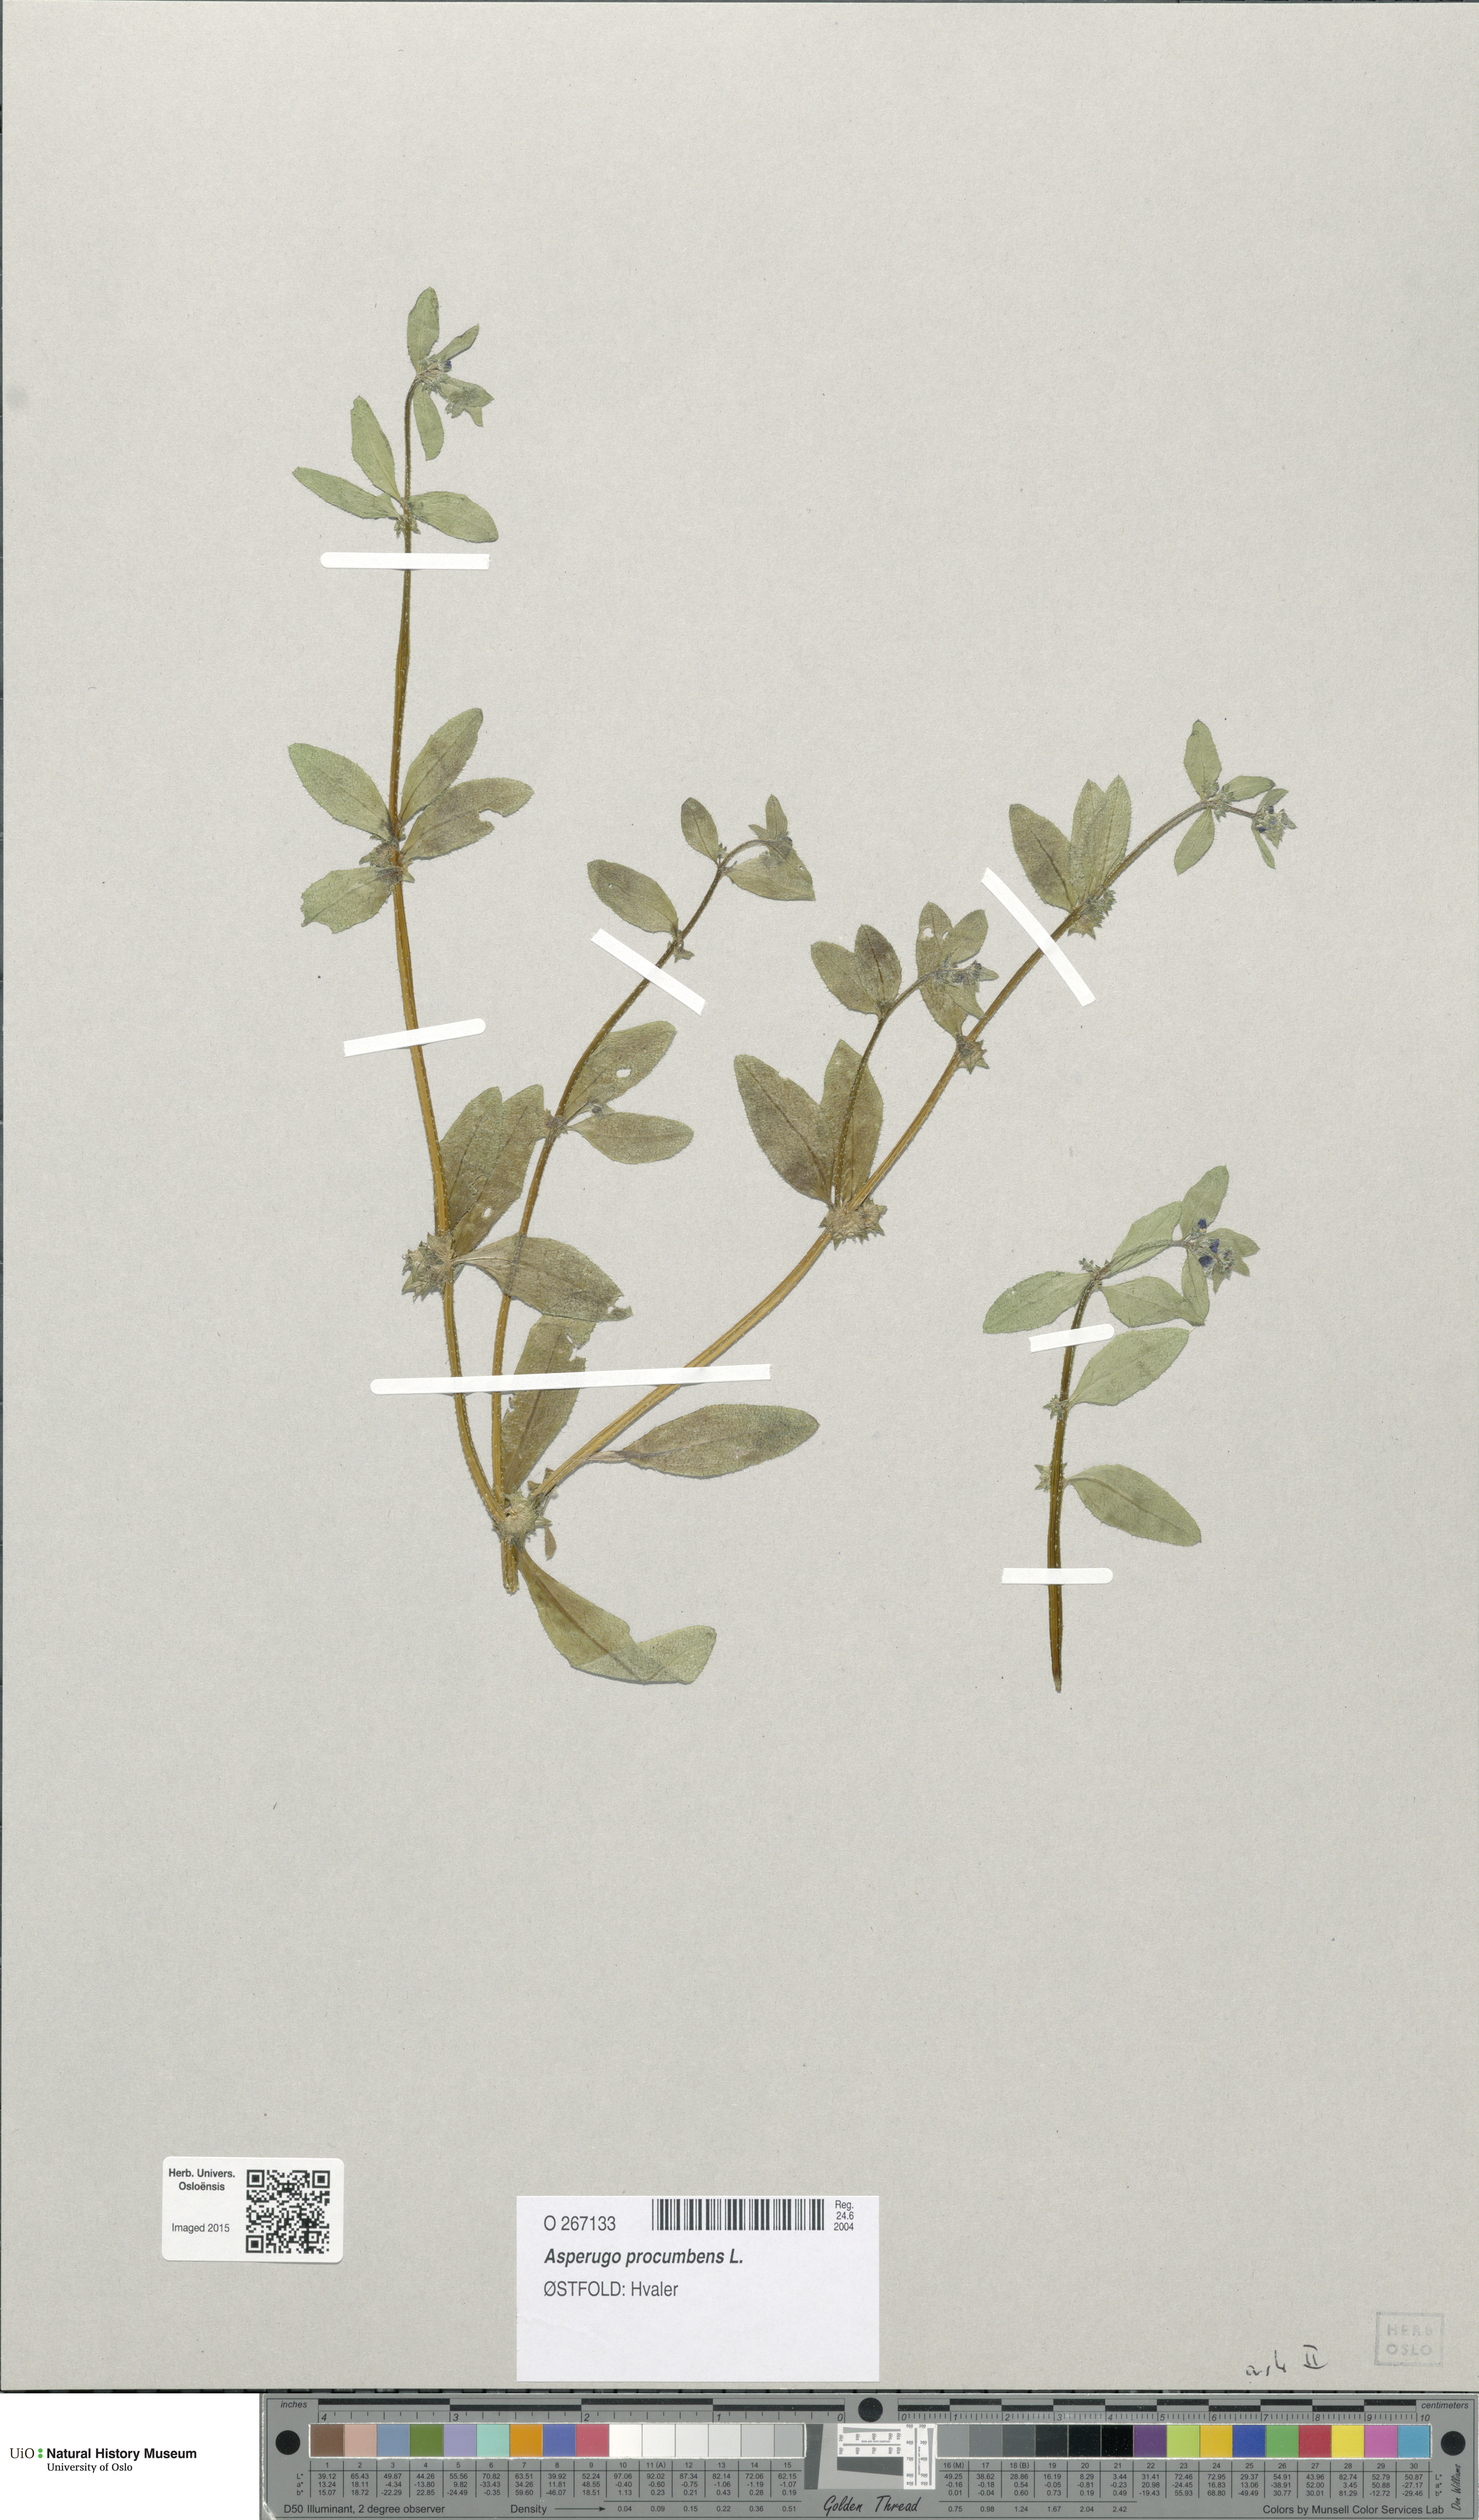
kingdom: Plantae
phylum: Tracheophyta
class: Magnoliopsida
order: Boraginales
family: Boraginaceae
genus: Asperugo
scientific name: Asperugo procumbens
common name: Madwort
